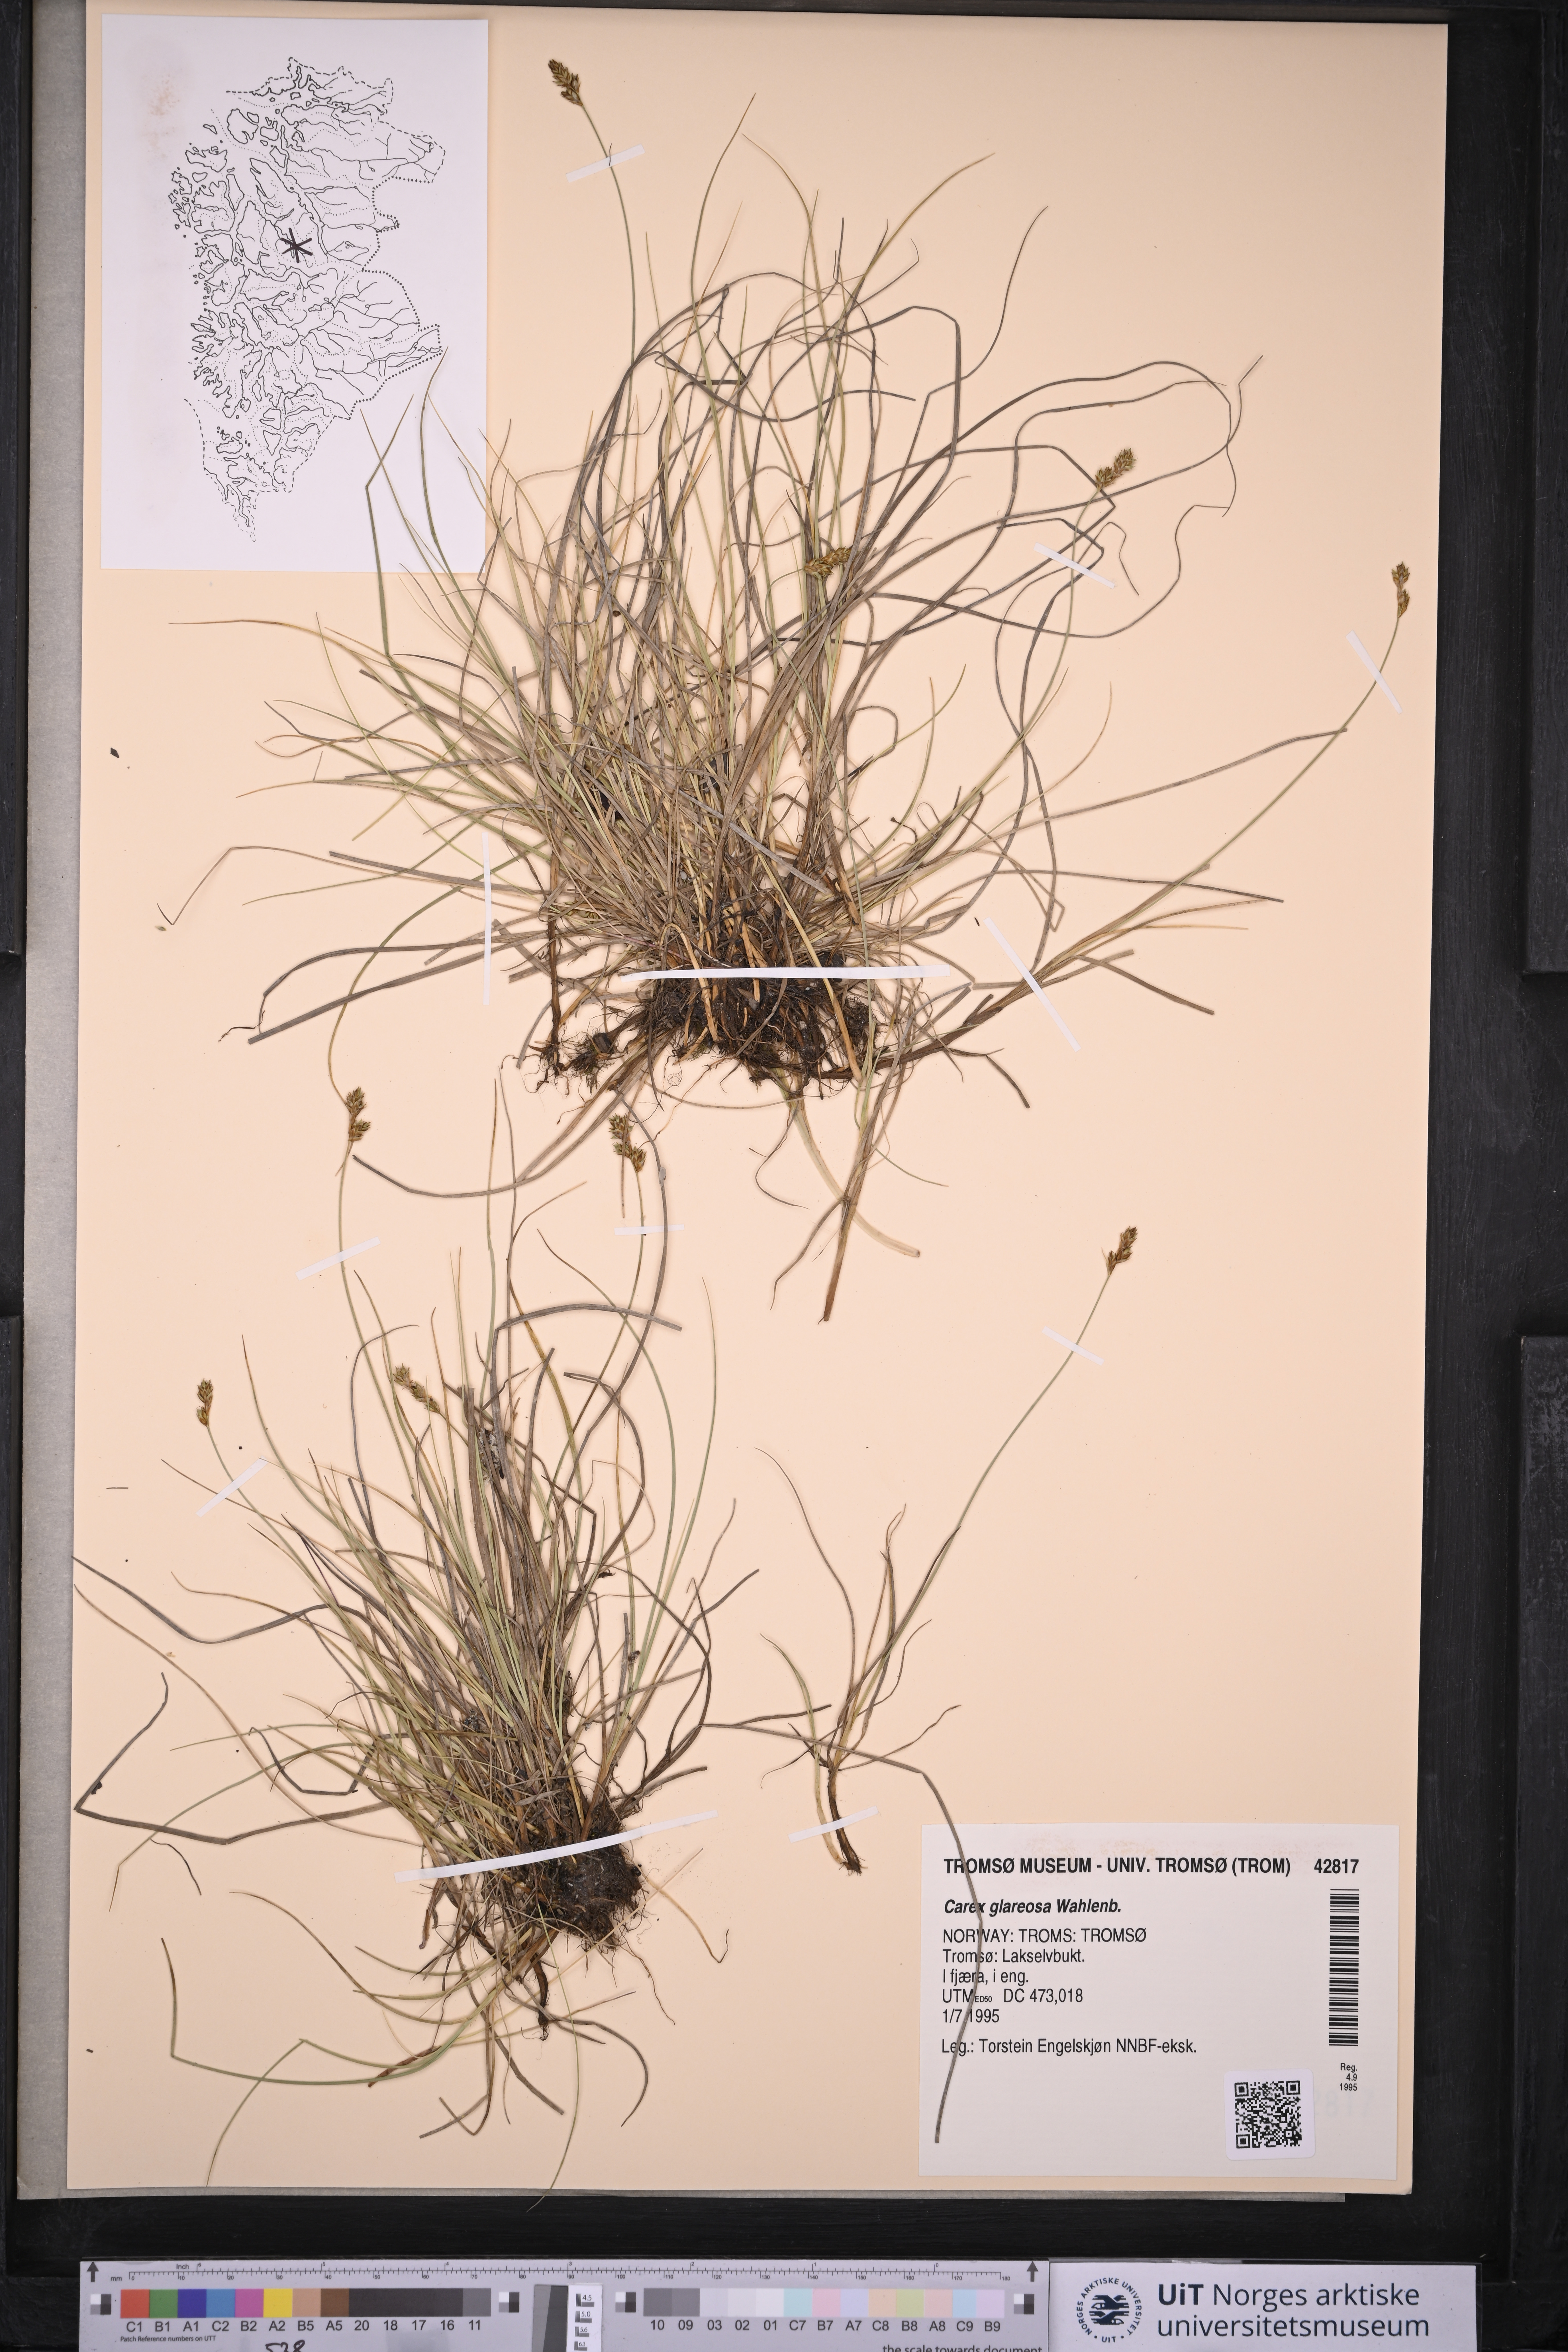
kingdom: Plantae
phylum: Tracheophyta
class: Liliopsida
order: Poales
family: Cyperaceae
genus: Carex
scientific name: Carex glareosa
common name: Clustered sedge
